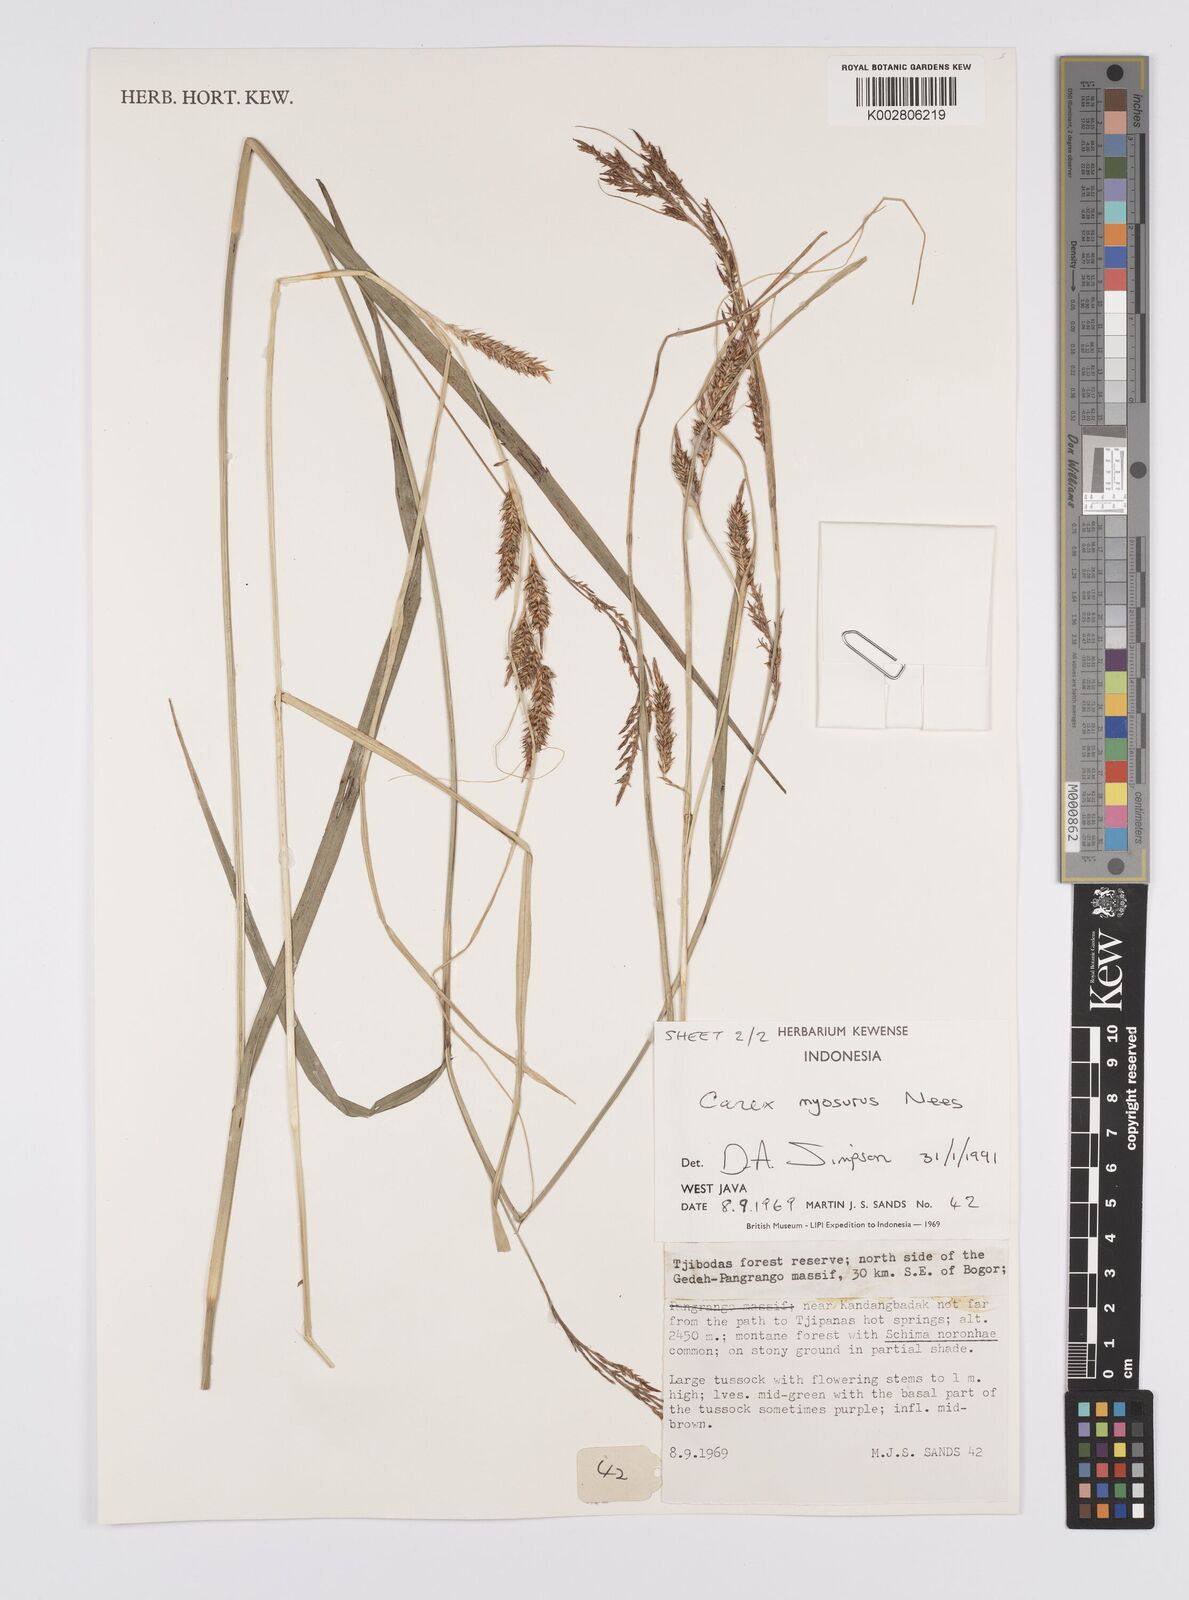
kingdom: Plantae
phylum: Tracheophyta
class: Liliopsida
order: Poales
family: Cyperaceae
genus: Carex
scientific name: Carex myosurus
